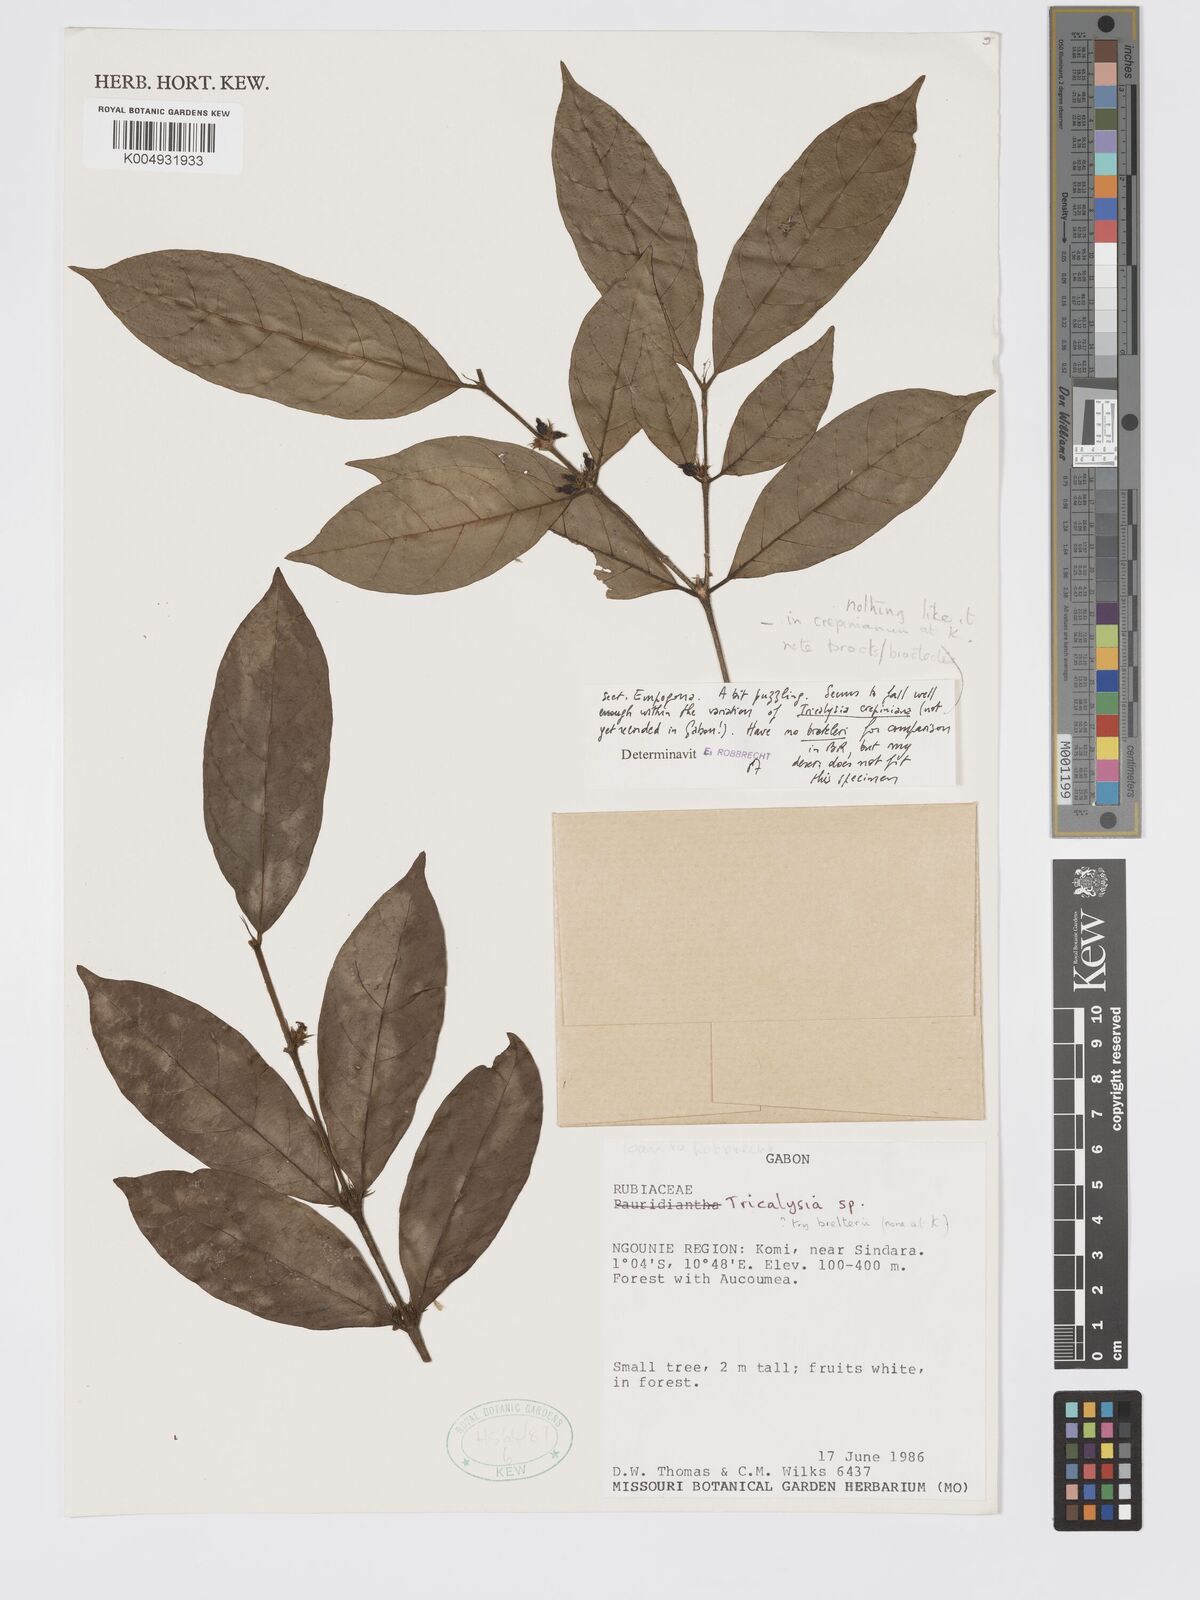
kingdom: Plantae
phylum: Tracheophyta
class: Magnoliopsida
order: Gentianales
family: Rubiaceae
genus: Tricalysia
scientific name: Tricalysia
